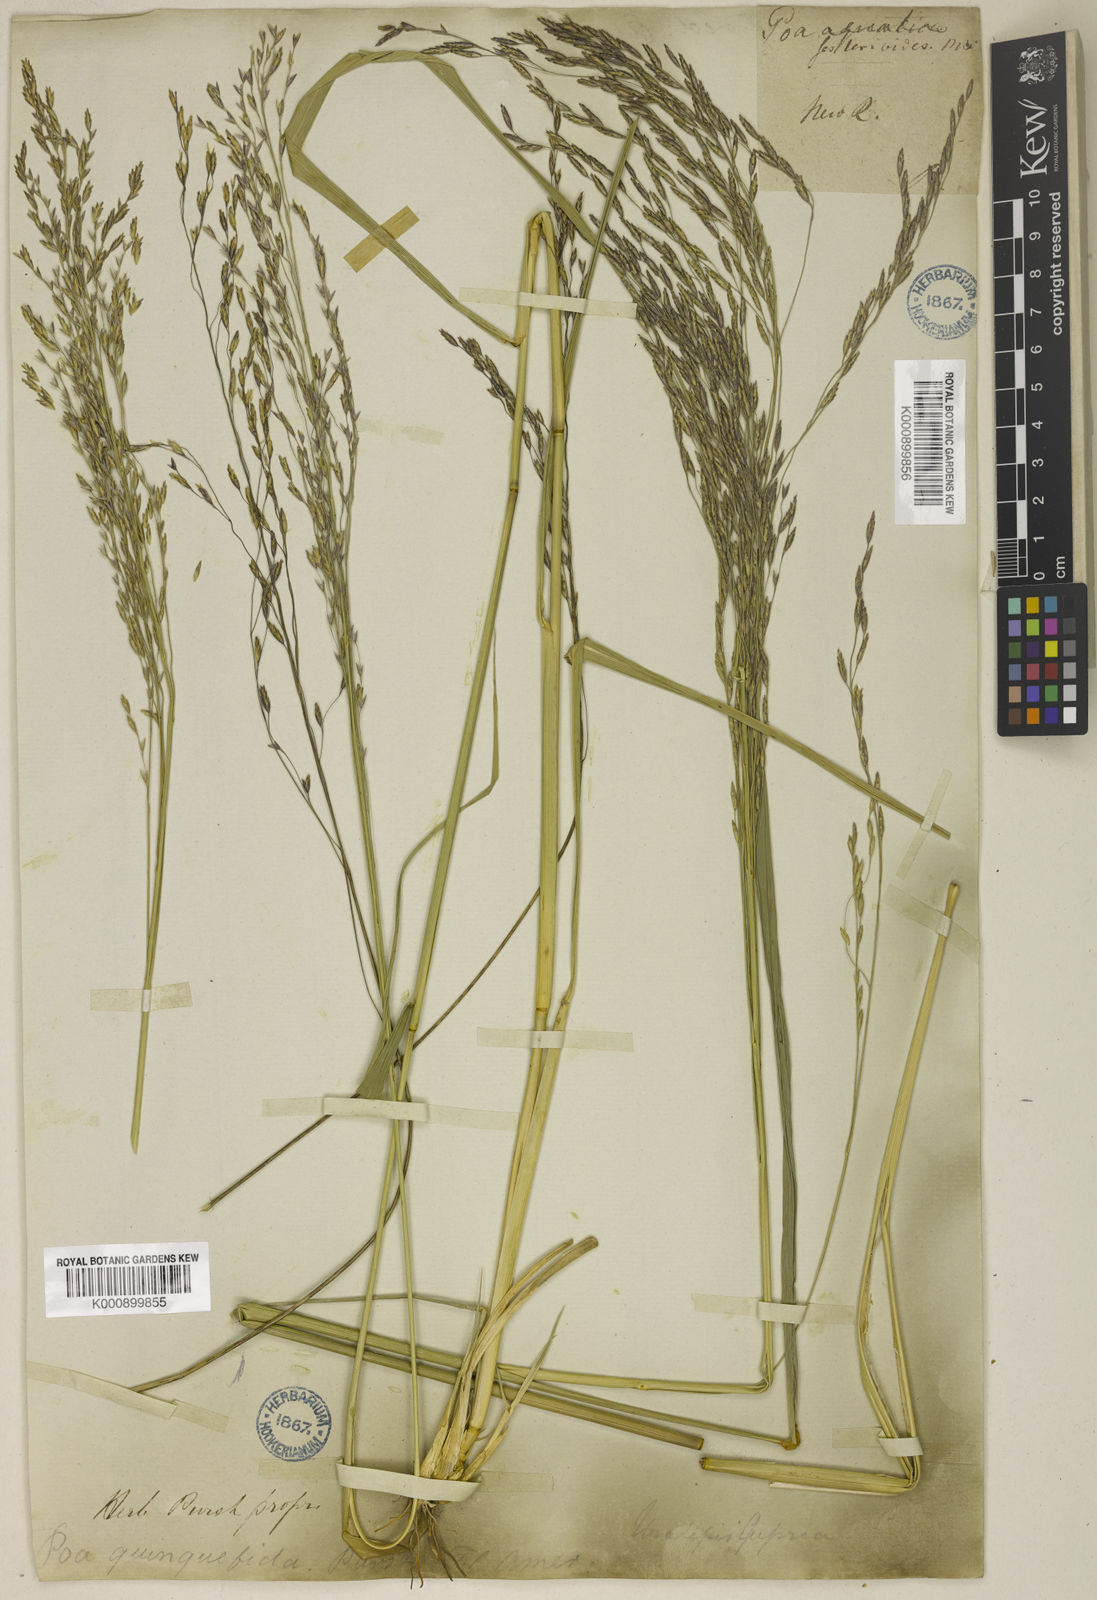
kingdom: Plantae
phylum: Tracheophyta
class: Liliopsida
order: Poales
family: Poaceae
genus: Tridens
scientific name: Tridens flavus
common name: Purpletop
